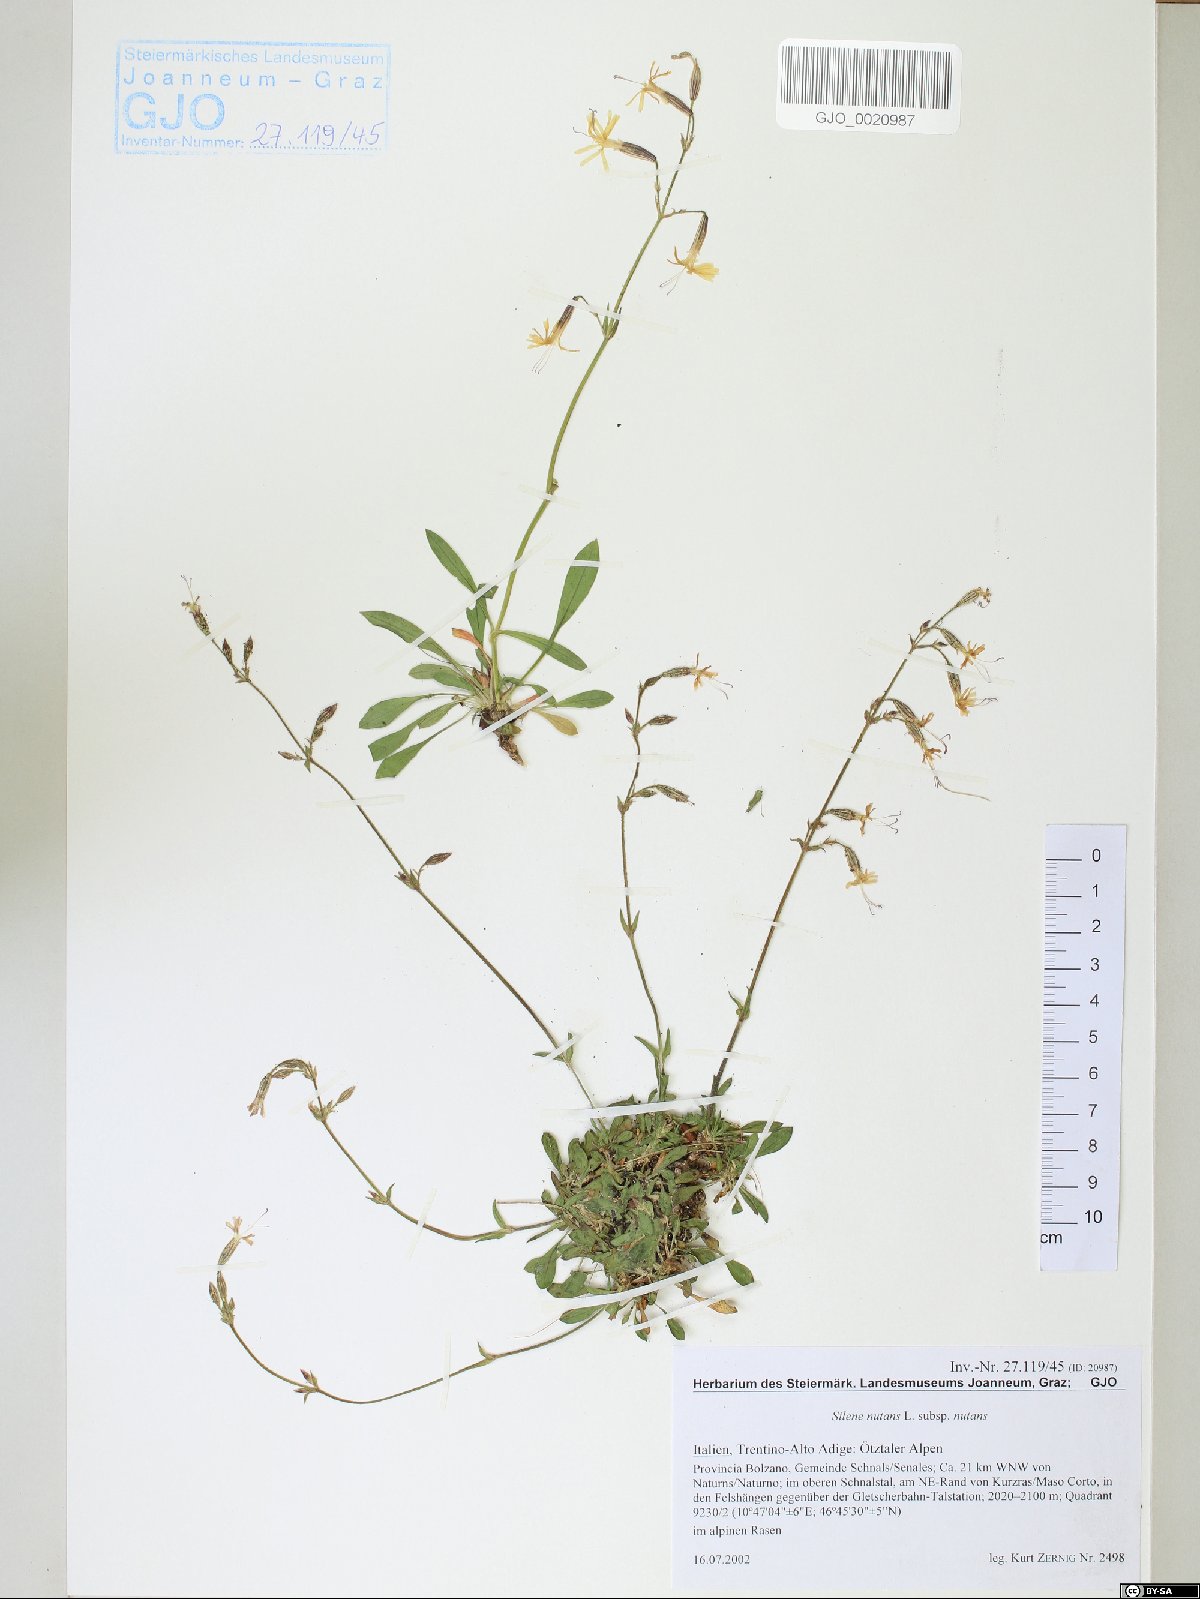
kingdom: Plantae
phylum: Tracheophyta
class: Magnoliopsida
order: Caryophyllales
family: Caryophyllaceae
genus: Silene
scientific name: Silene nutans
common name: Nottingham catchfly
